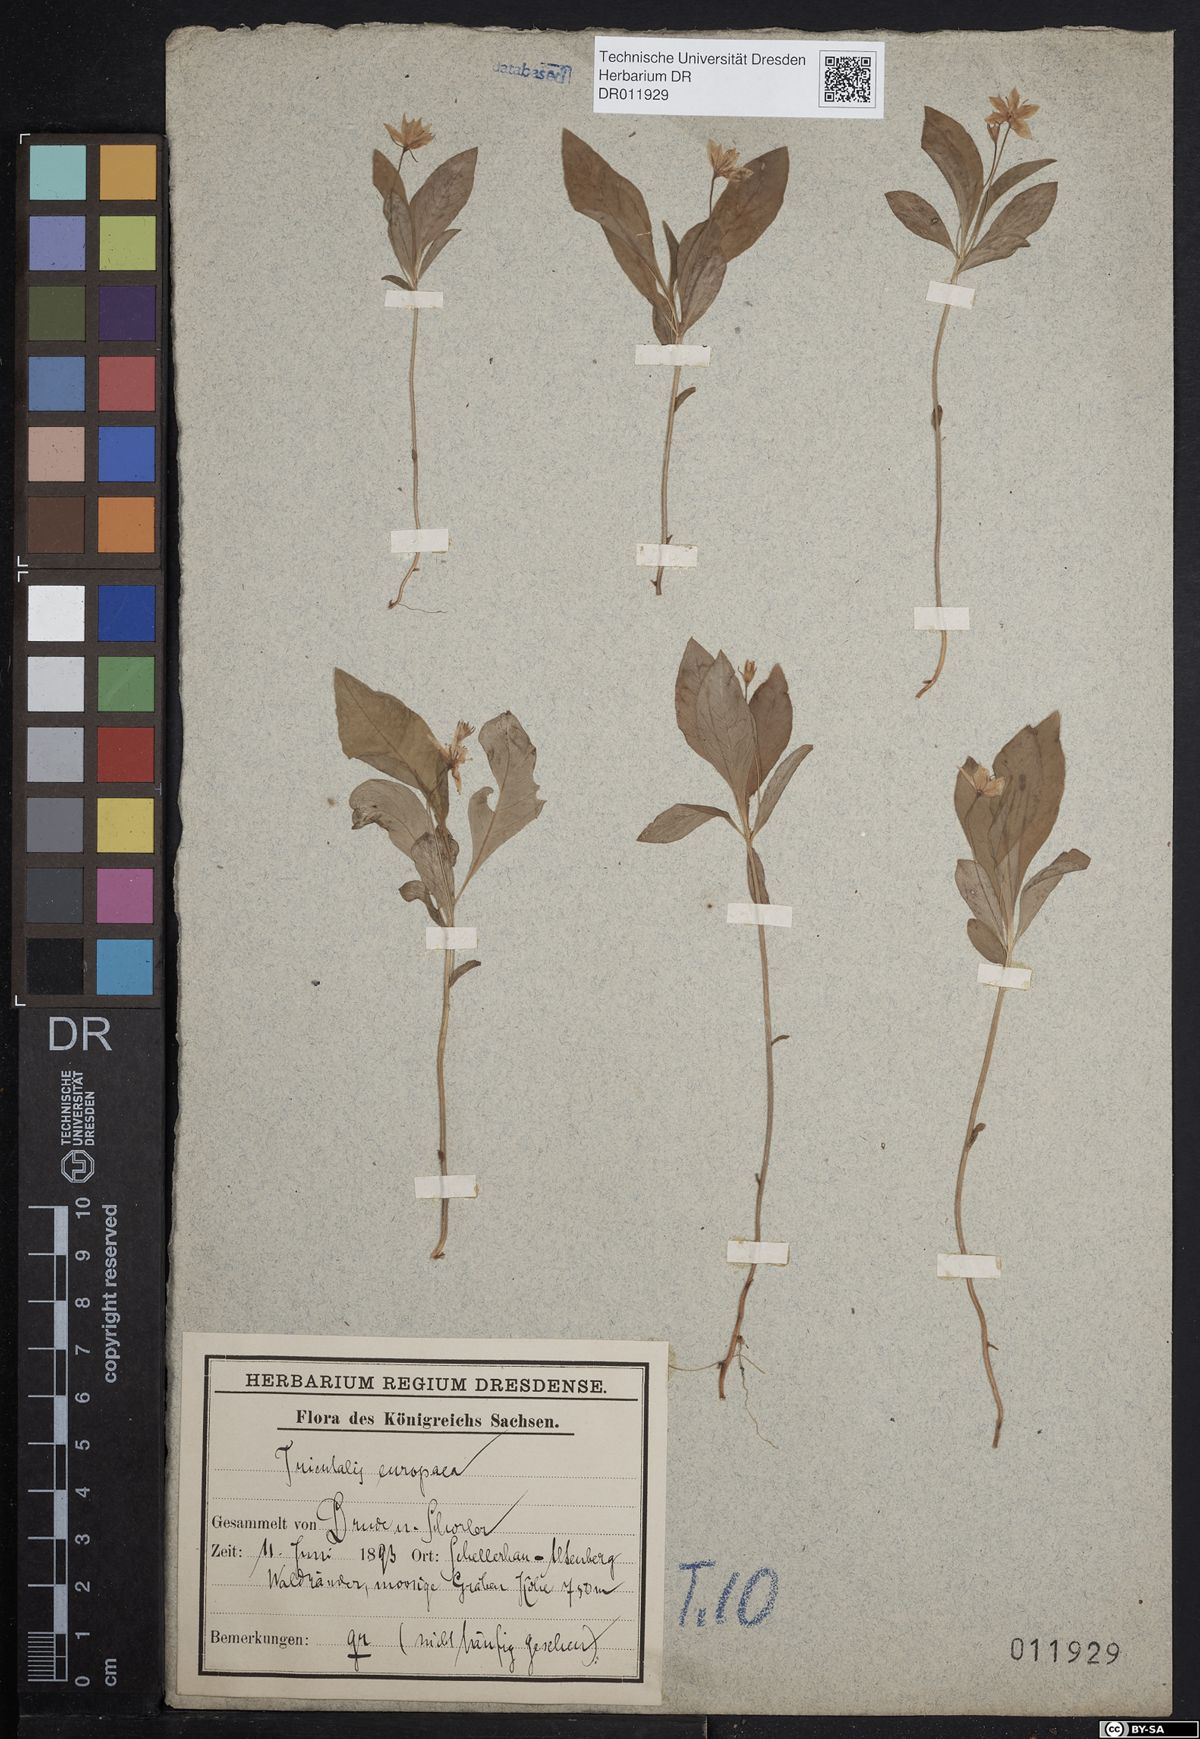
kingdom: Plantae
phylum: Tracheophyta
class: Magnoliopsida
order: Ericales
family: Primulaceae
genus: Lysimachia
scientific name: Lysimachia europaea
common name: Arctic starflower
